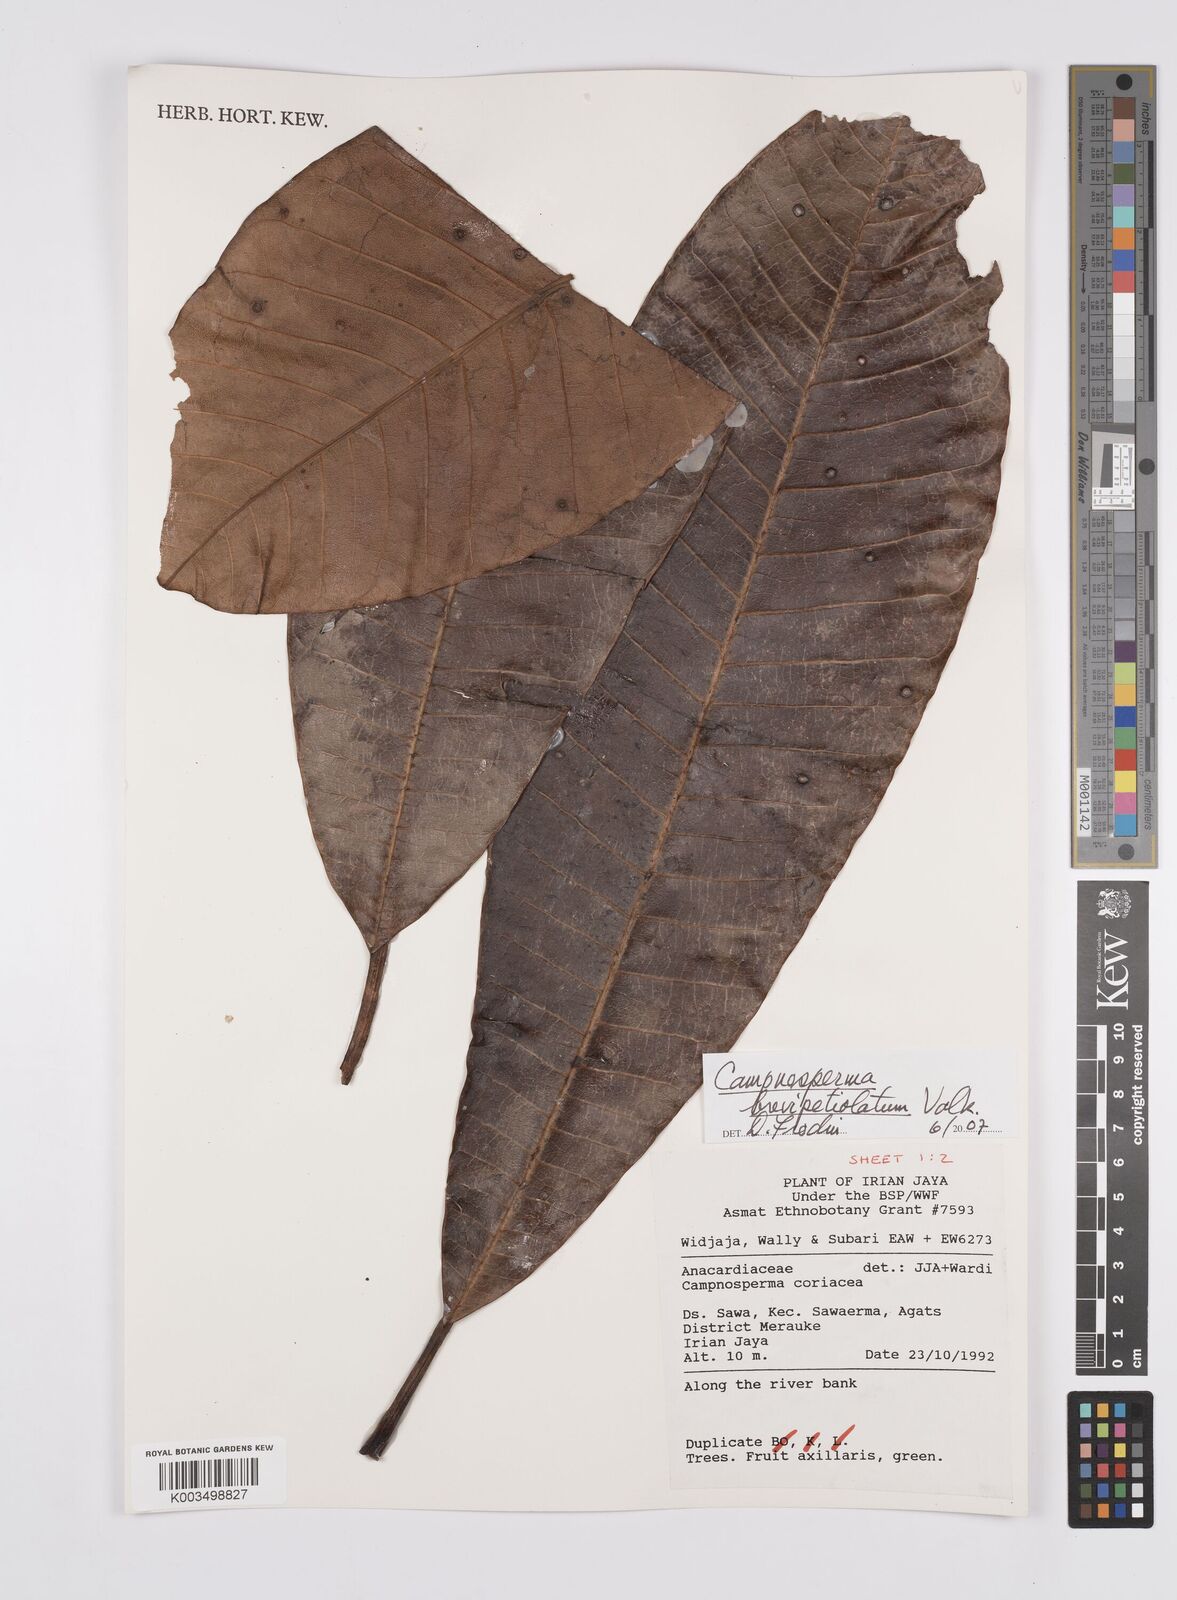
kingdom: Plantae
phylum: Tracheophyta
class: Magnoliopsida
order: Sapindales
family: Anacardiaceae
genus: Campnosperma
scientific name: Campnosperma brevipetiolatum
